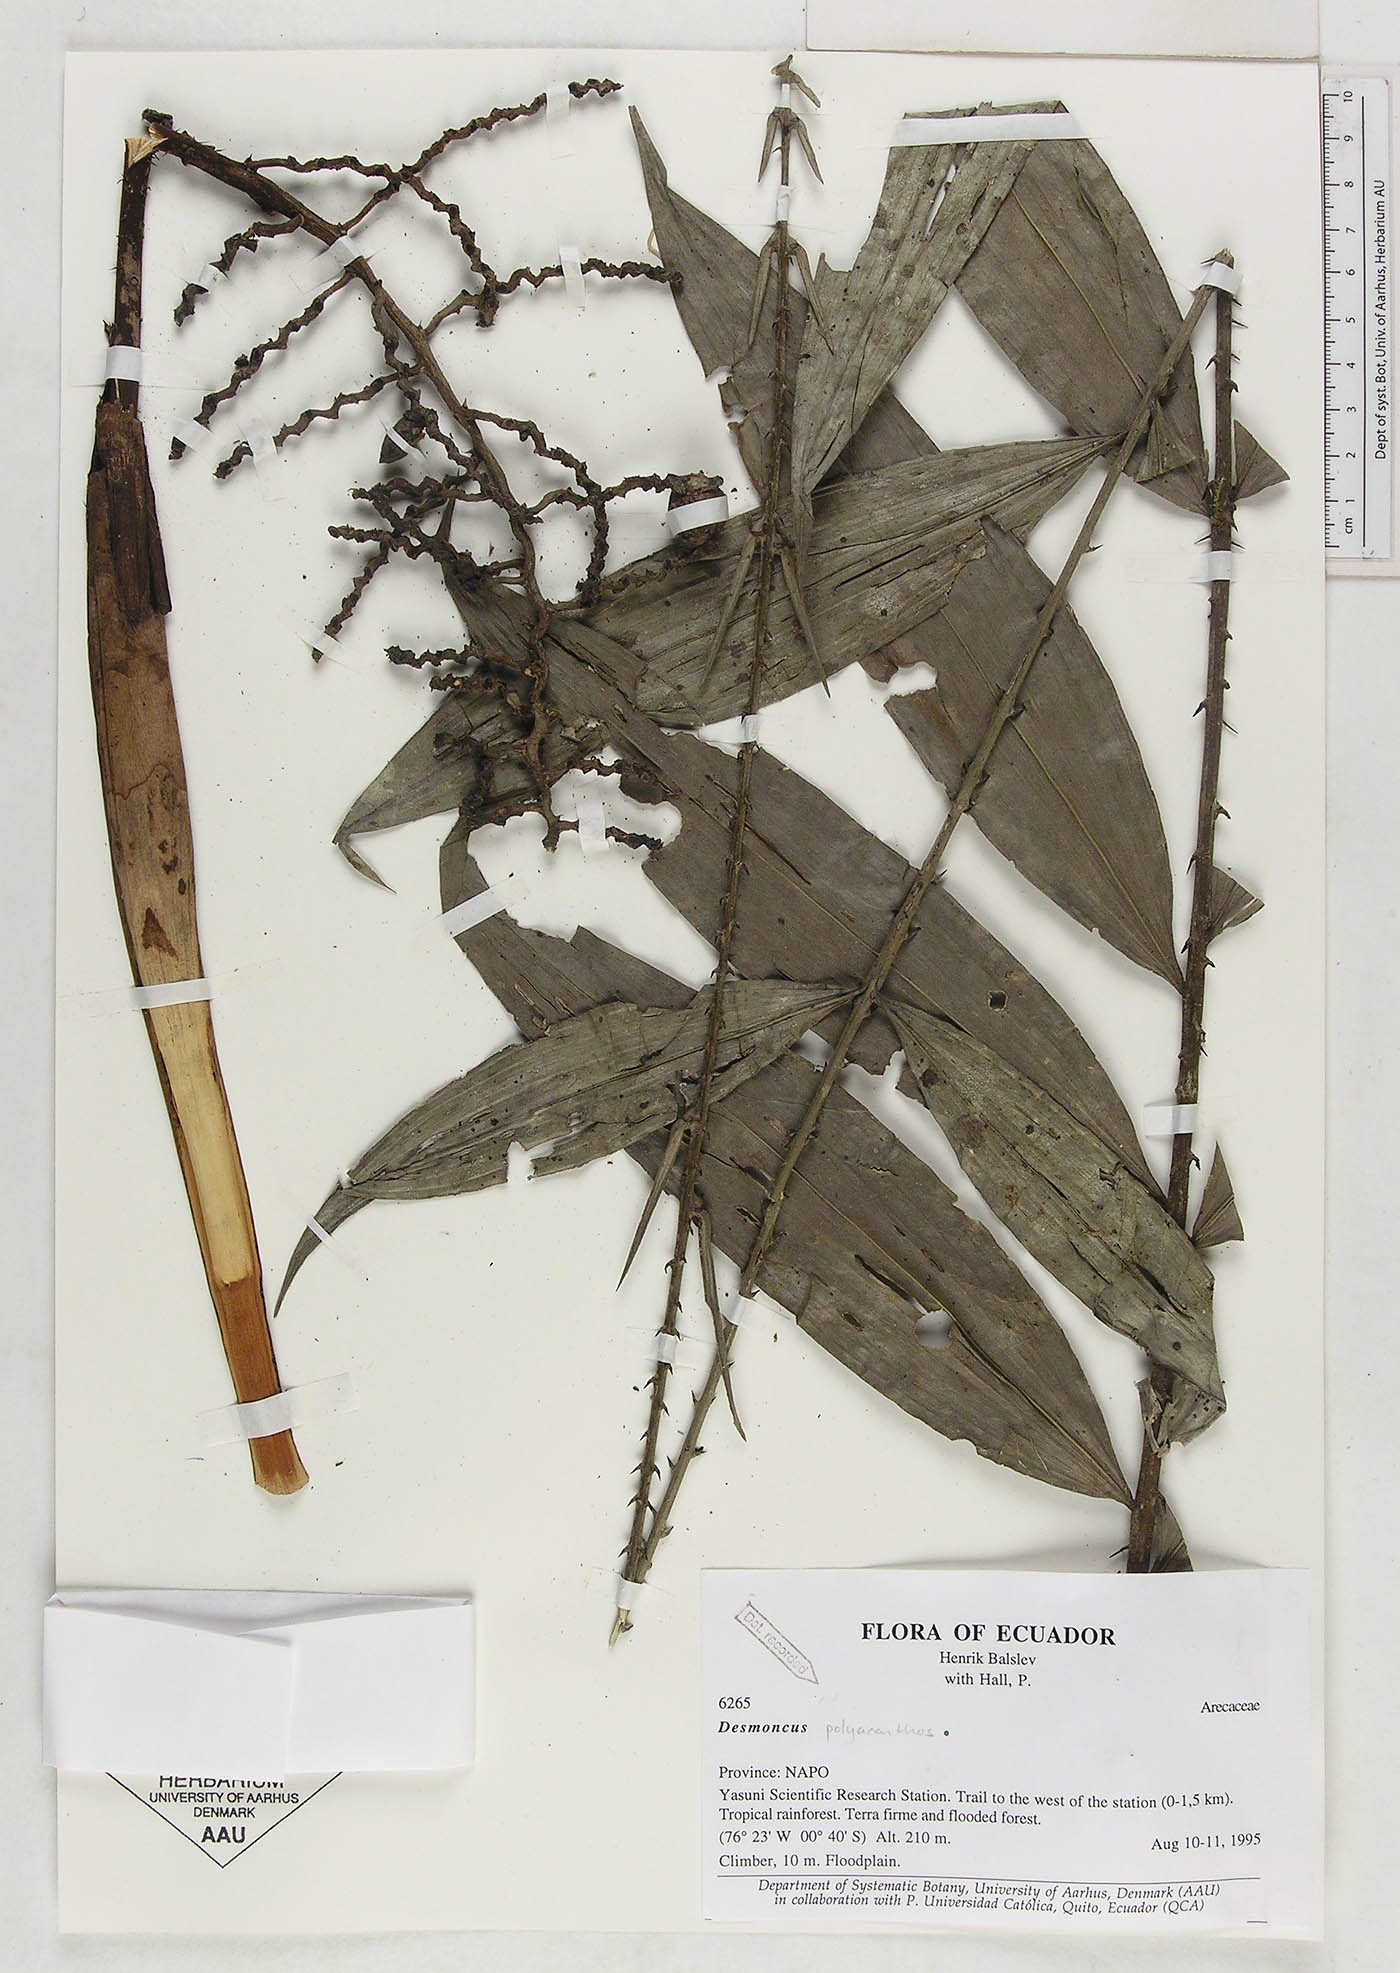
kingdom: Plantae
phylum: Tracheophyta
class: Liliopsida
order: Arecales
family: Arecaceae
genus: Desmoncus
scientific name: Desmoncus polyacanthos
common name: Suriname bramble palm
